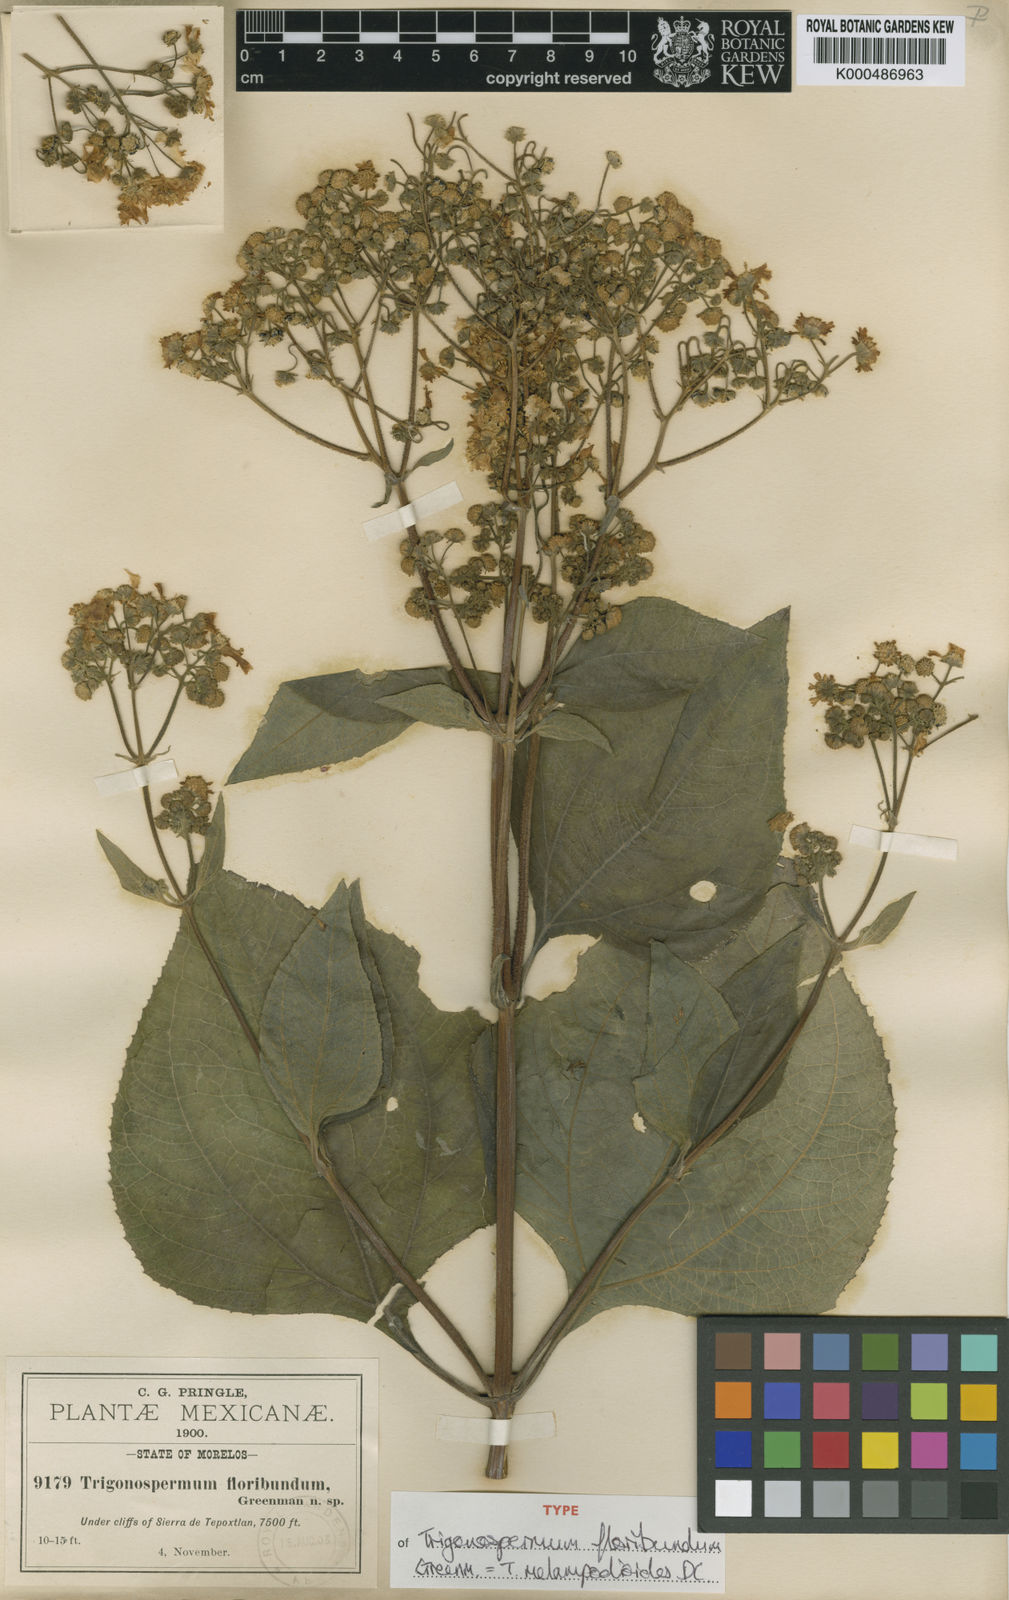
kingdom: Plantae
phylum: Tracheophyta
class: Magnoliopsida
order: Asterales
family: Asteraceae
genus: Trigonospermum
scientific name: Trigonospermum melampodioides
